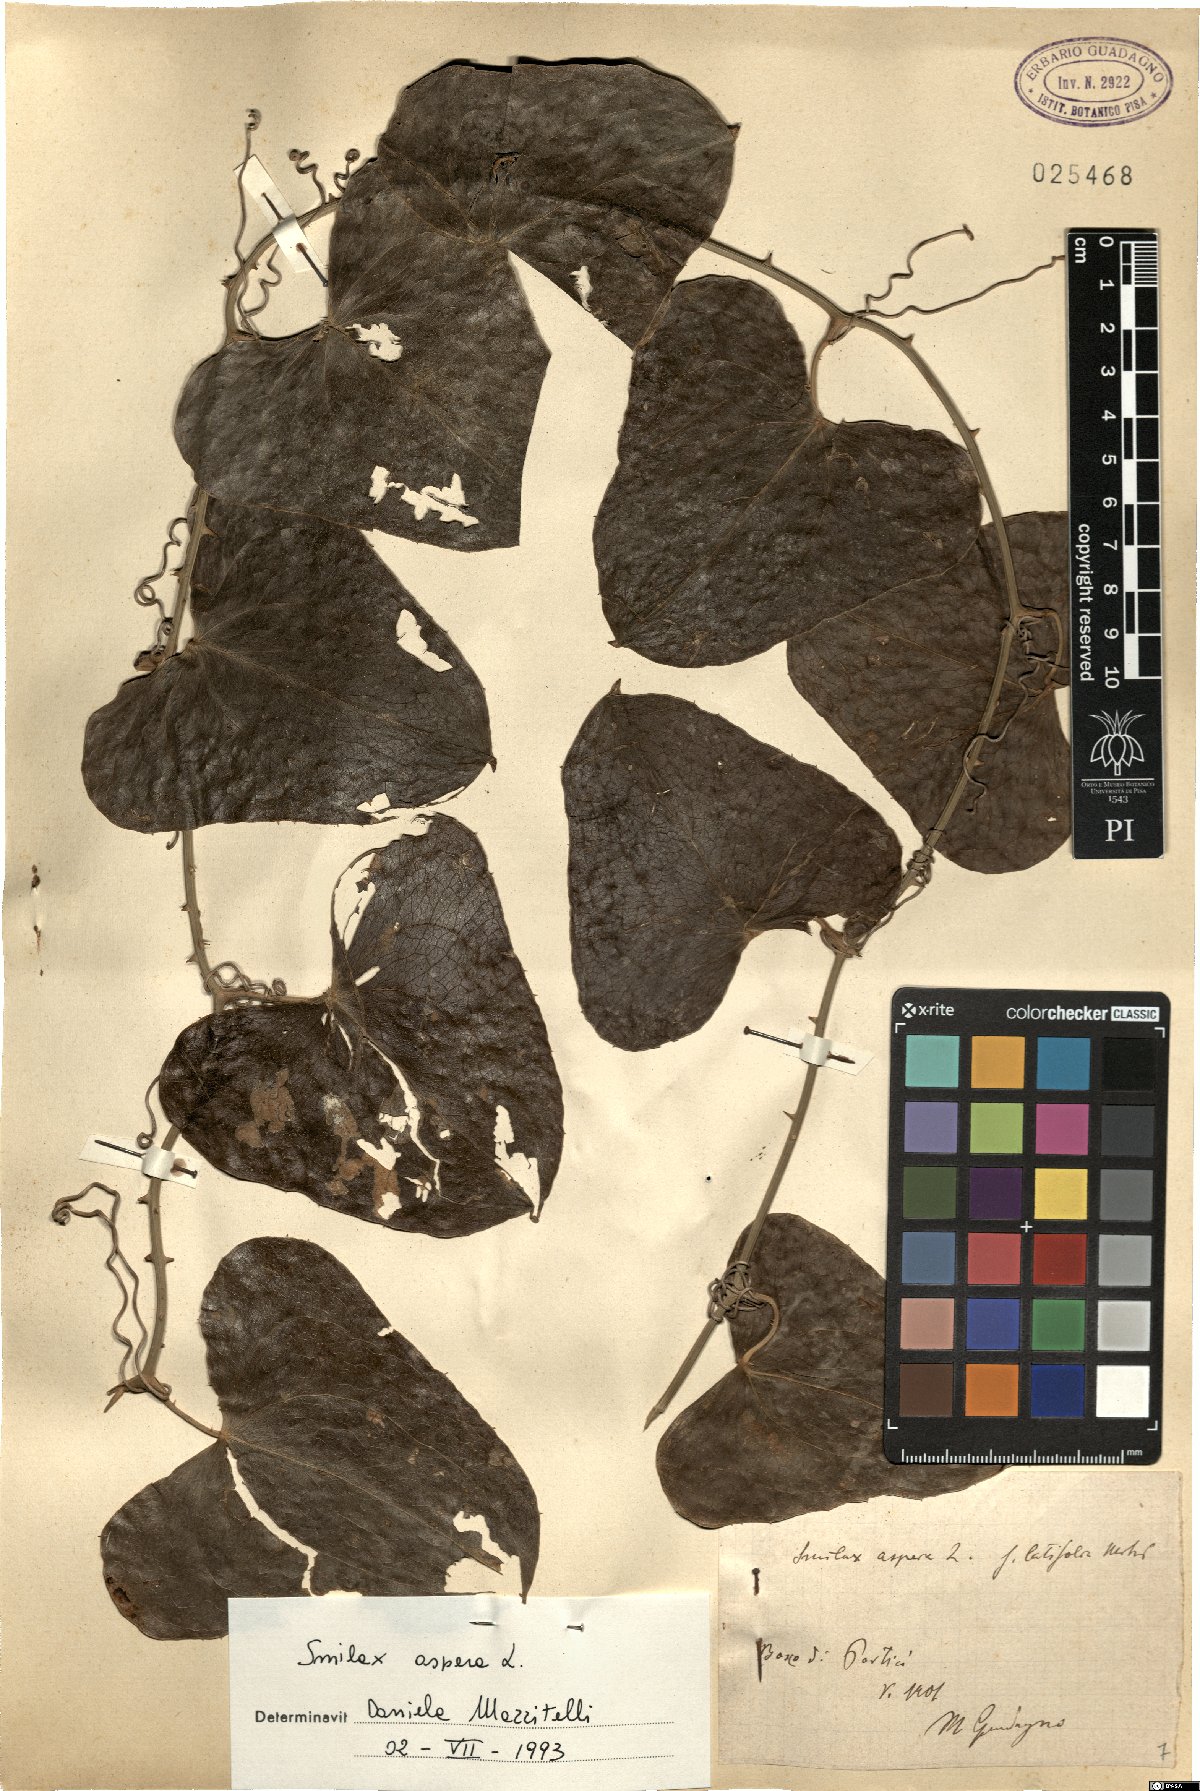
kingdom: Plantae
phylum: Tracheophyta
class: Liliopsida
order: Liliales
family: Smilacaceae
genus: Smilax
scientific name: Smilax aspera
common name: Common smilax
